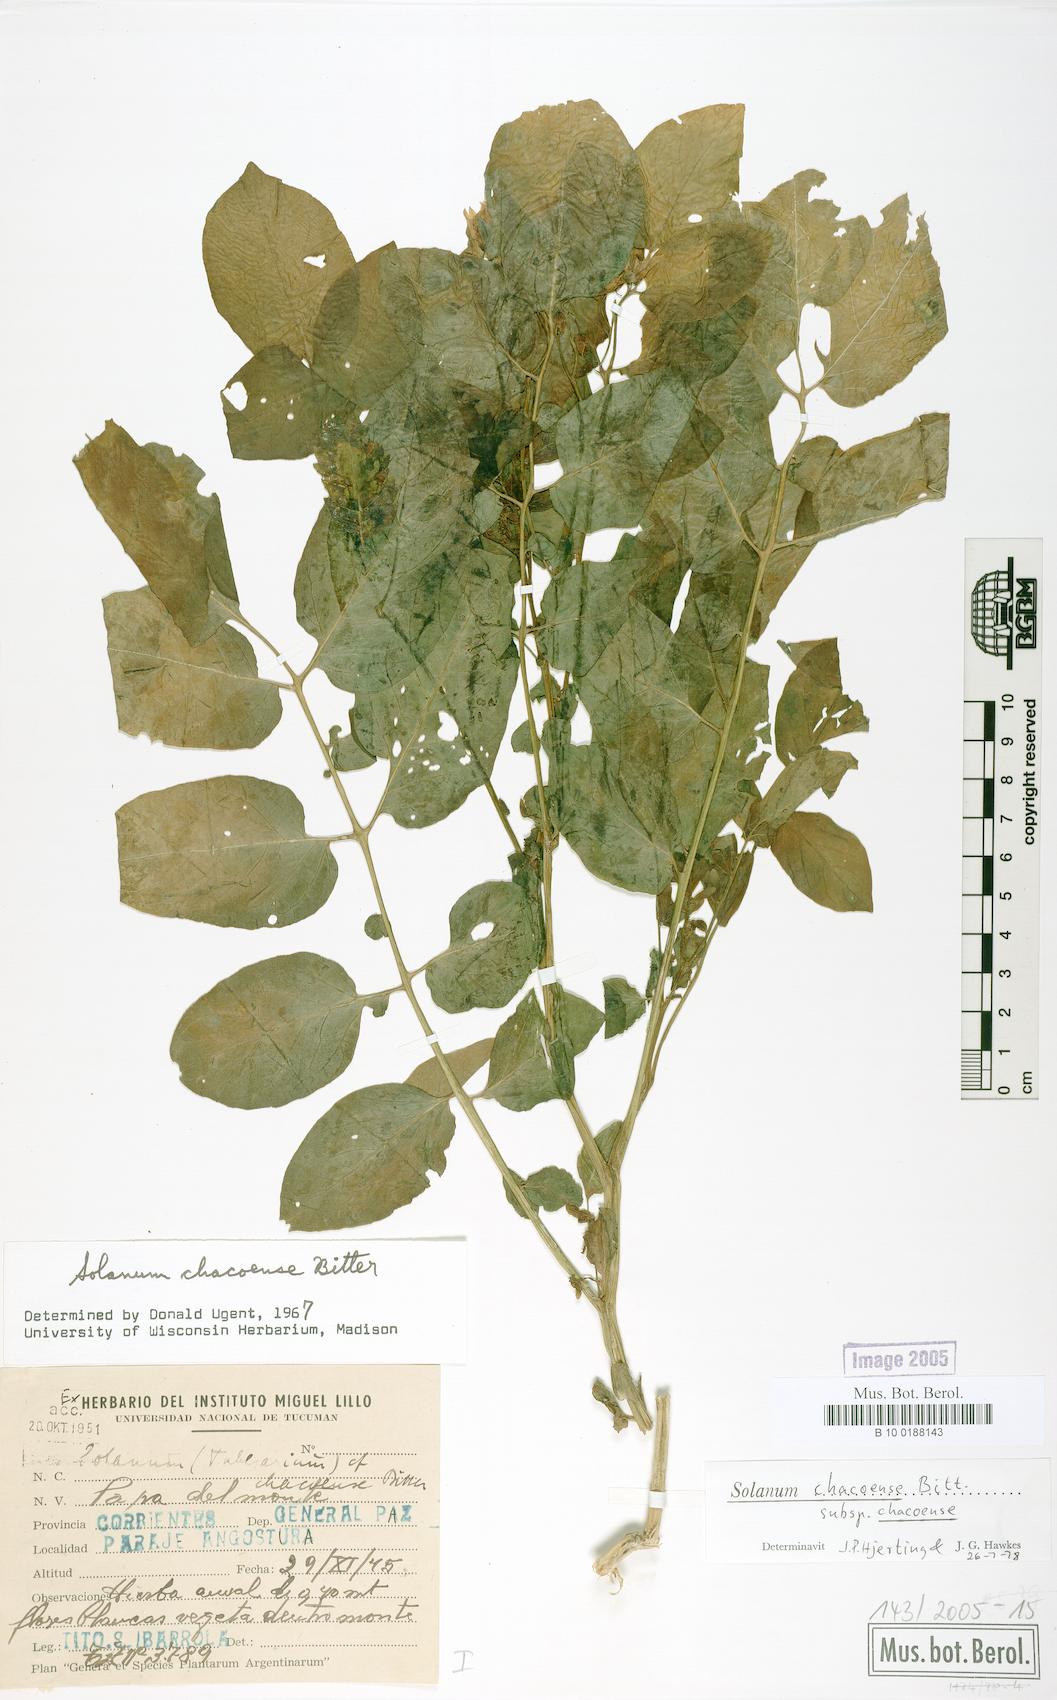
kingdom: Plantae
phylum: Tracheophyta
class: Magnoliopsida
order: Solanales
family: Solanaceae
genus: Solanum
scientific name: Solanum chacoense
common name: Chaco potato
